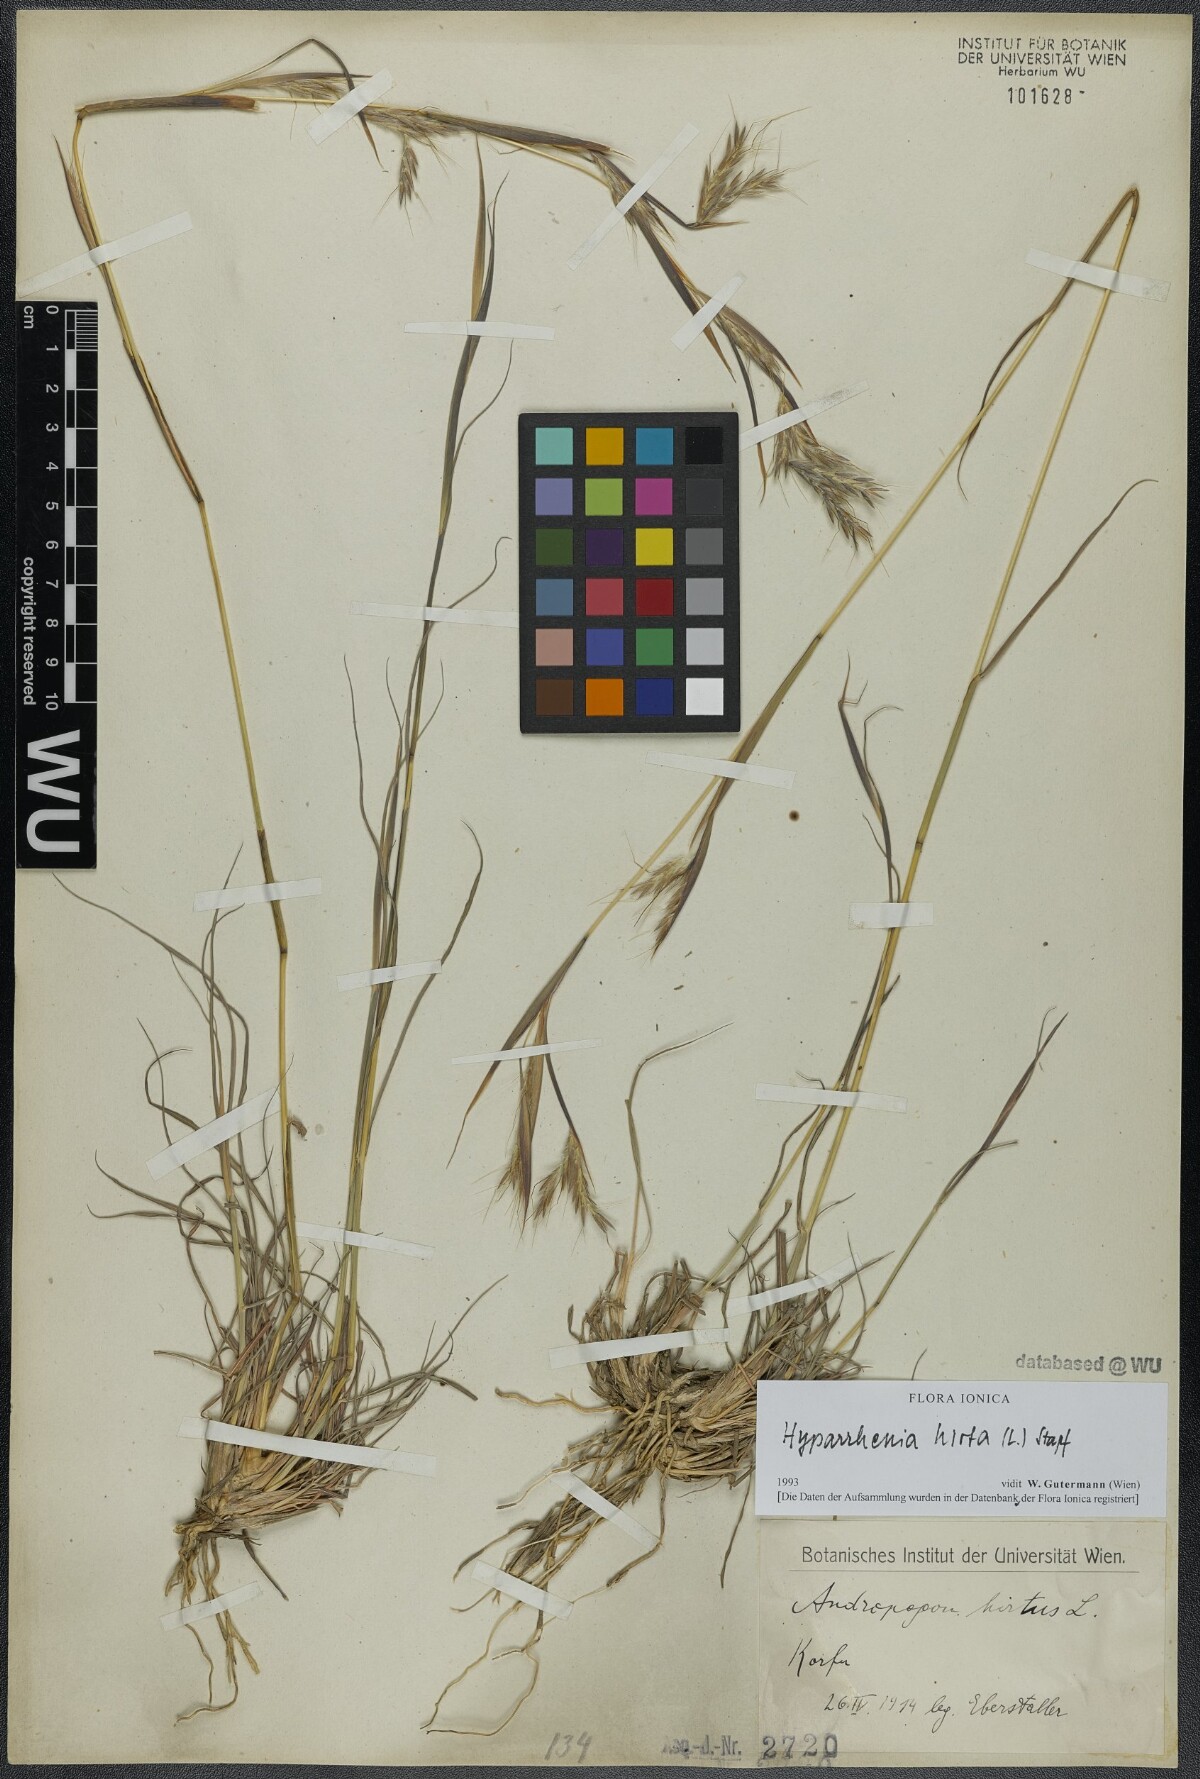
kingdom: Plantae
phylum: Tracheophyta
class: Liliopsida
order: Poales
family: Poaceae
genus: Hyparrhenia
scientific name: Hyparrhenia hirta
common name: Thatching grass
